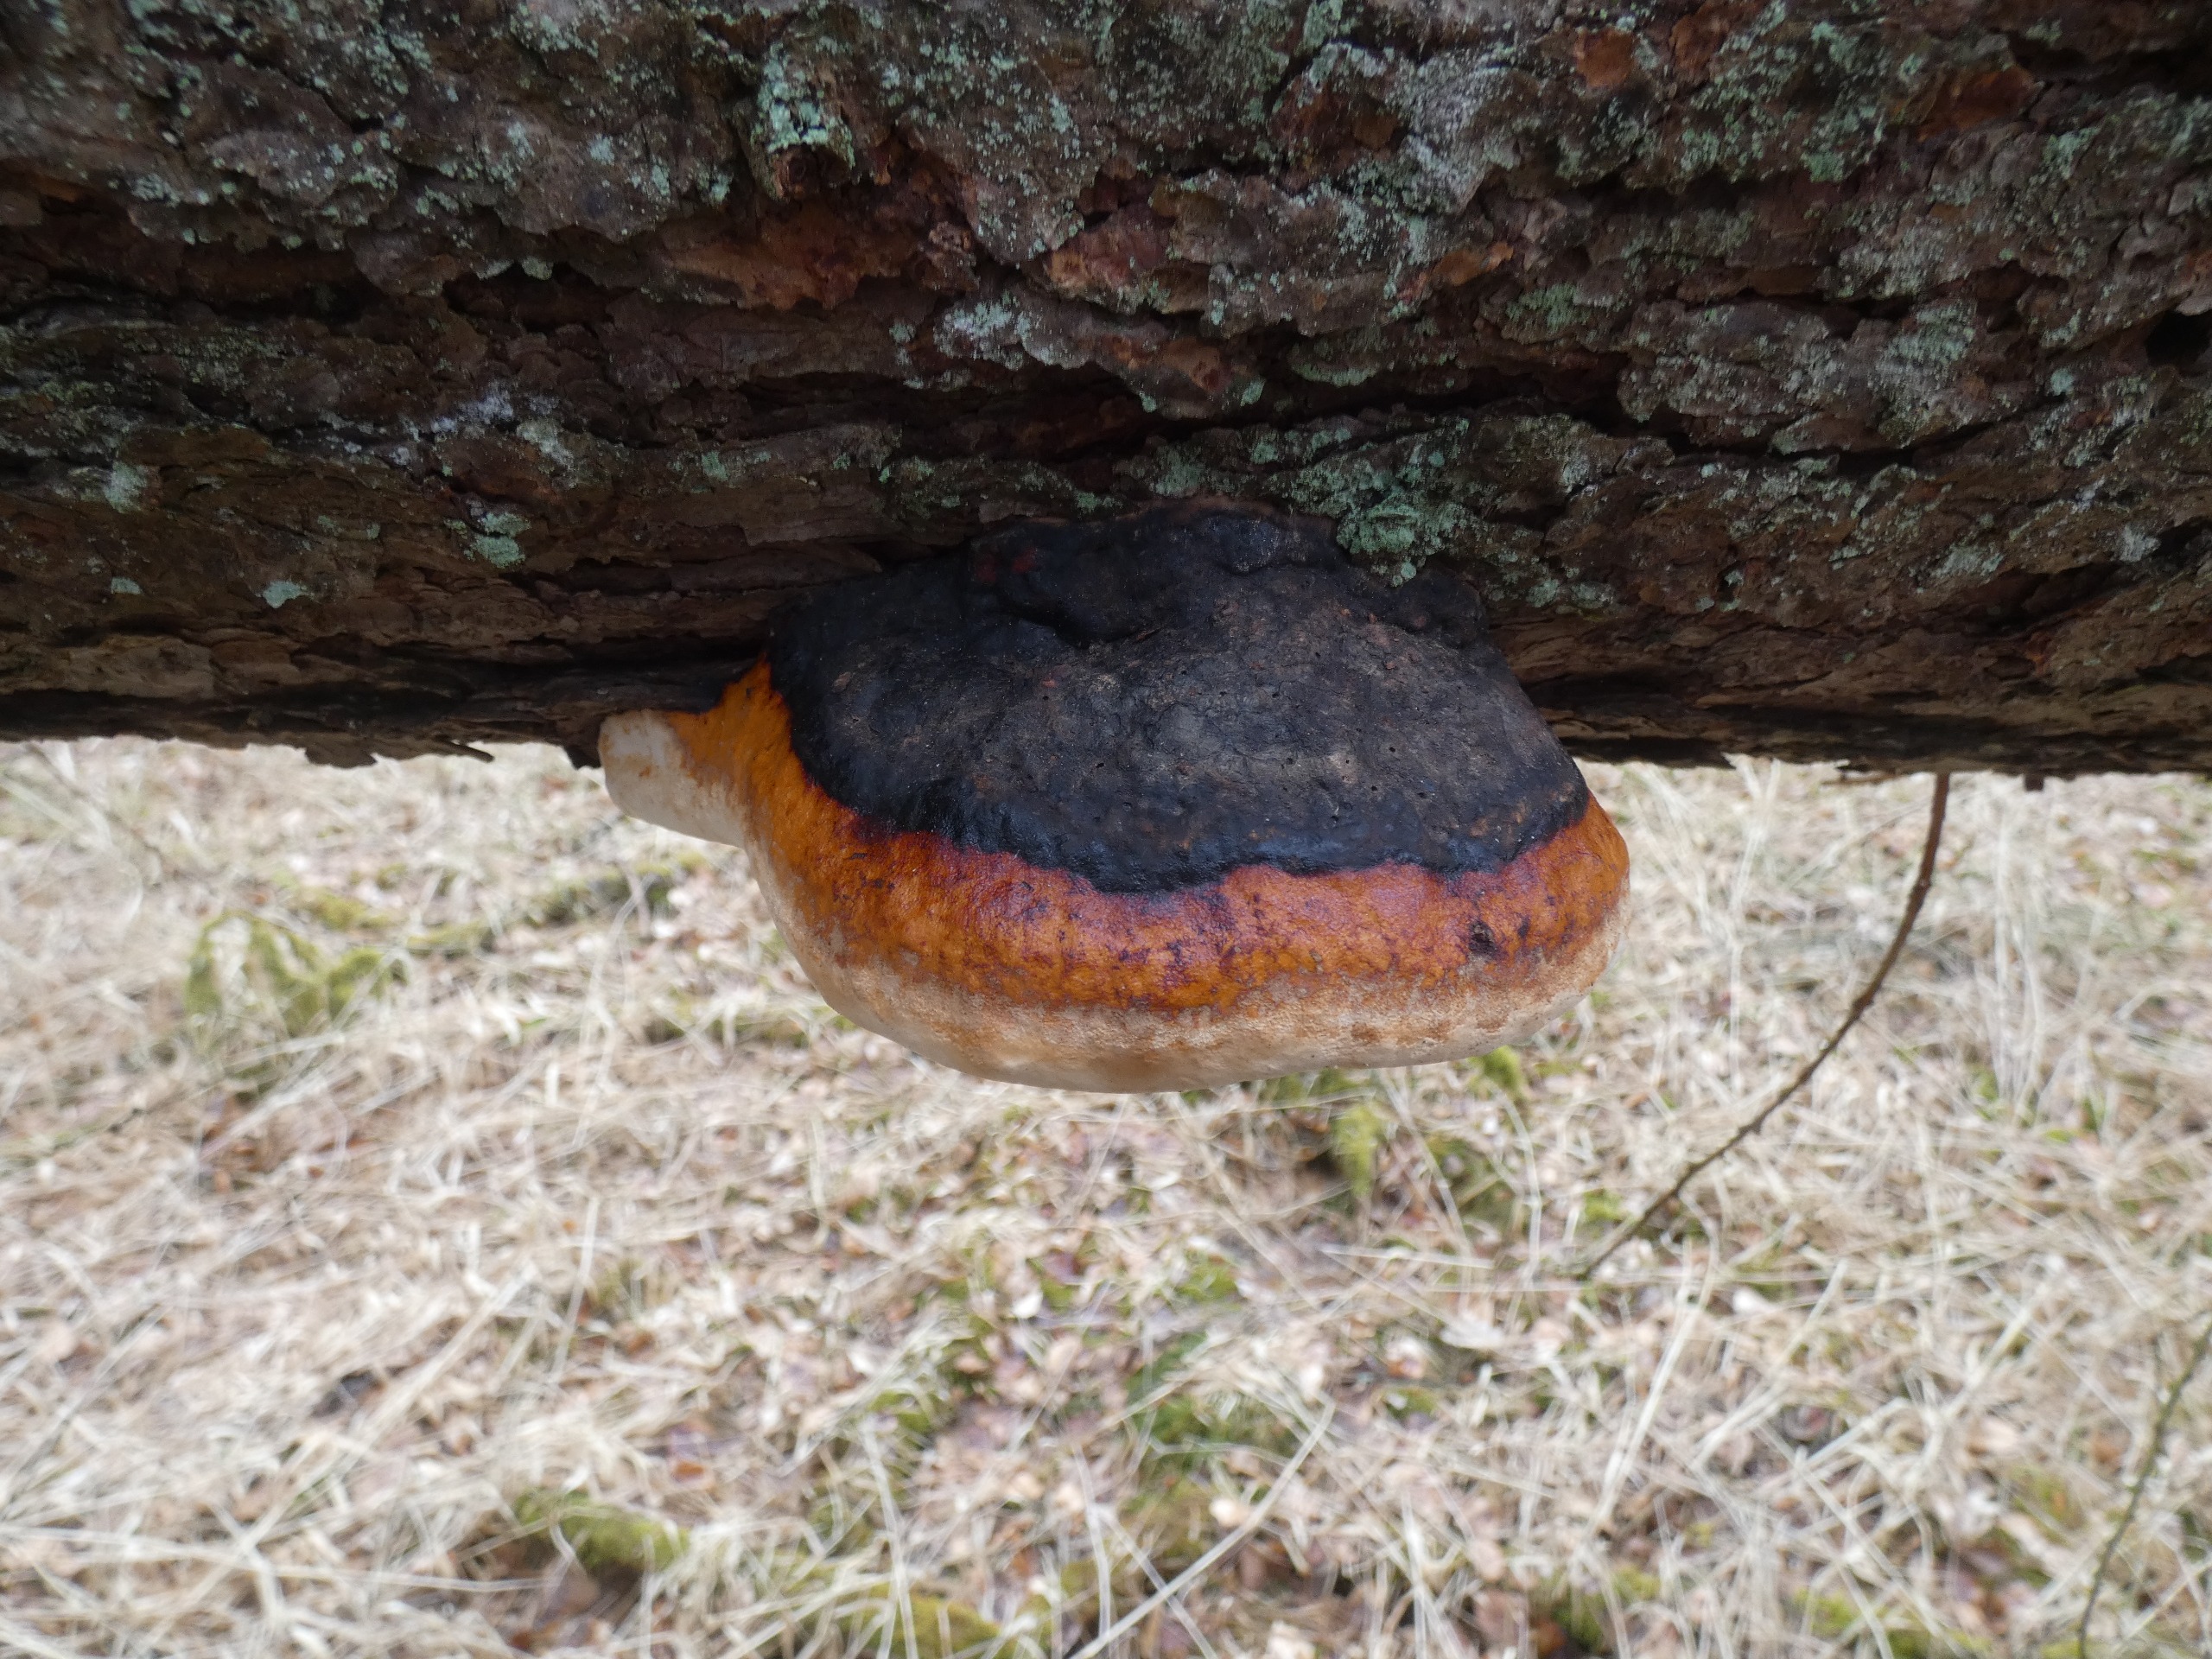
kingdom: Fungi
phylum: Basidiomycota
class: Agaricomycetes
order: Polyporales
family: Fomitopsidaceae
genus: Fomitopsis
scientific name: Fomitopsis pinicola
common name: Randbæltet hovporesvamp
